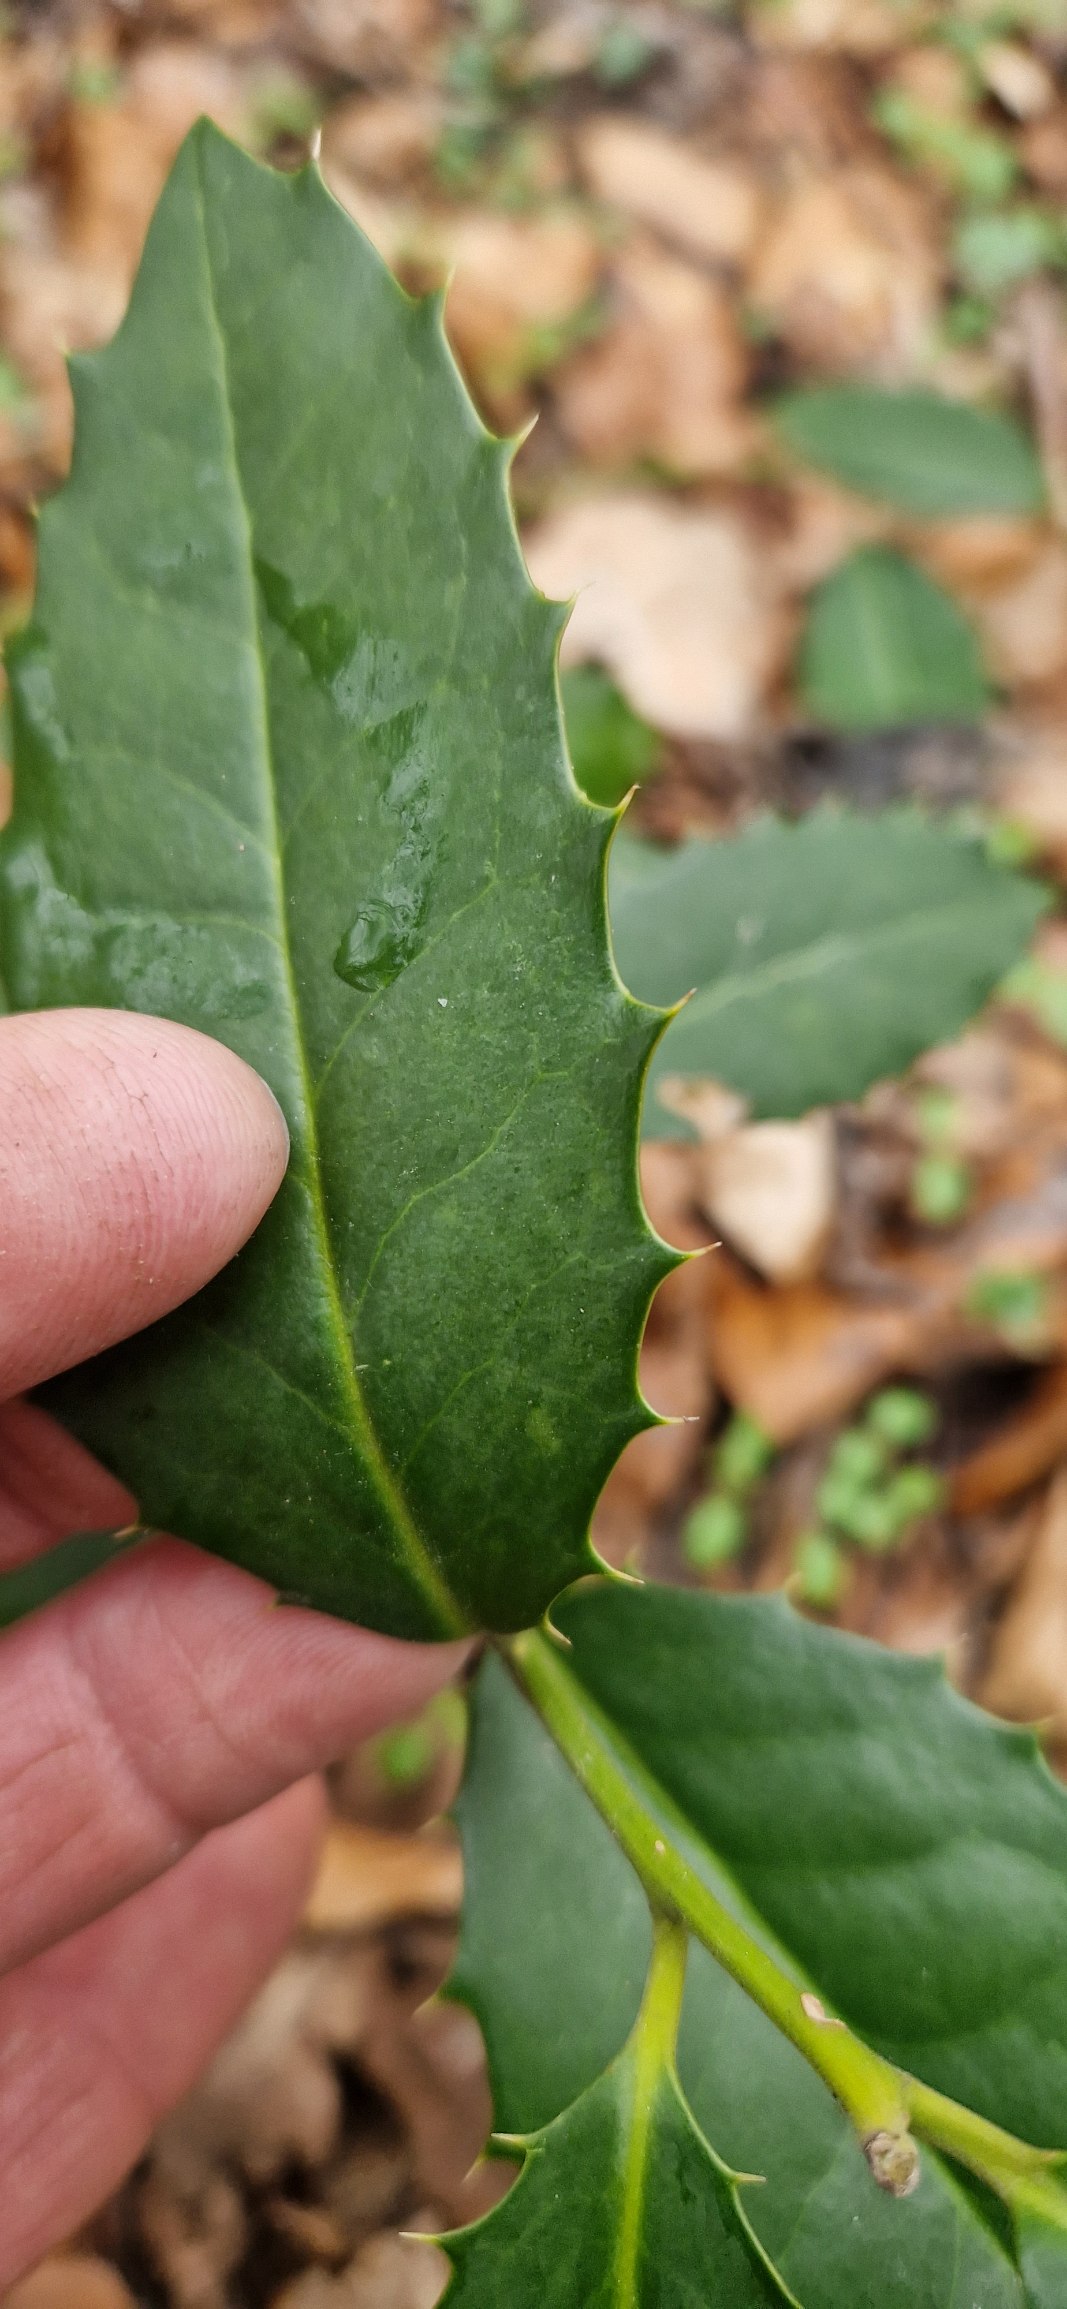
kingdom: Plantae
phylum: Tracheophyta
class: Magnoliopsida
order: Aquifoliales
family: Aquifoliaceae
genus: Ilex
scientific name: Ilex altaclerensis
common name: Storbladet kristtorn
